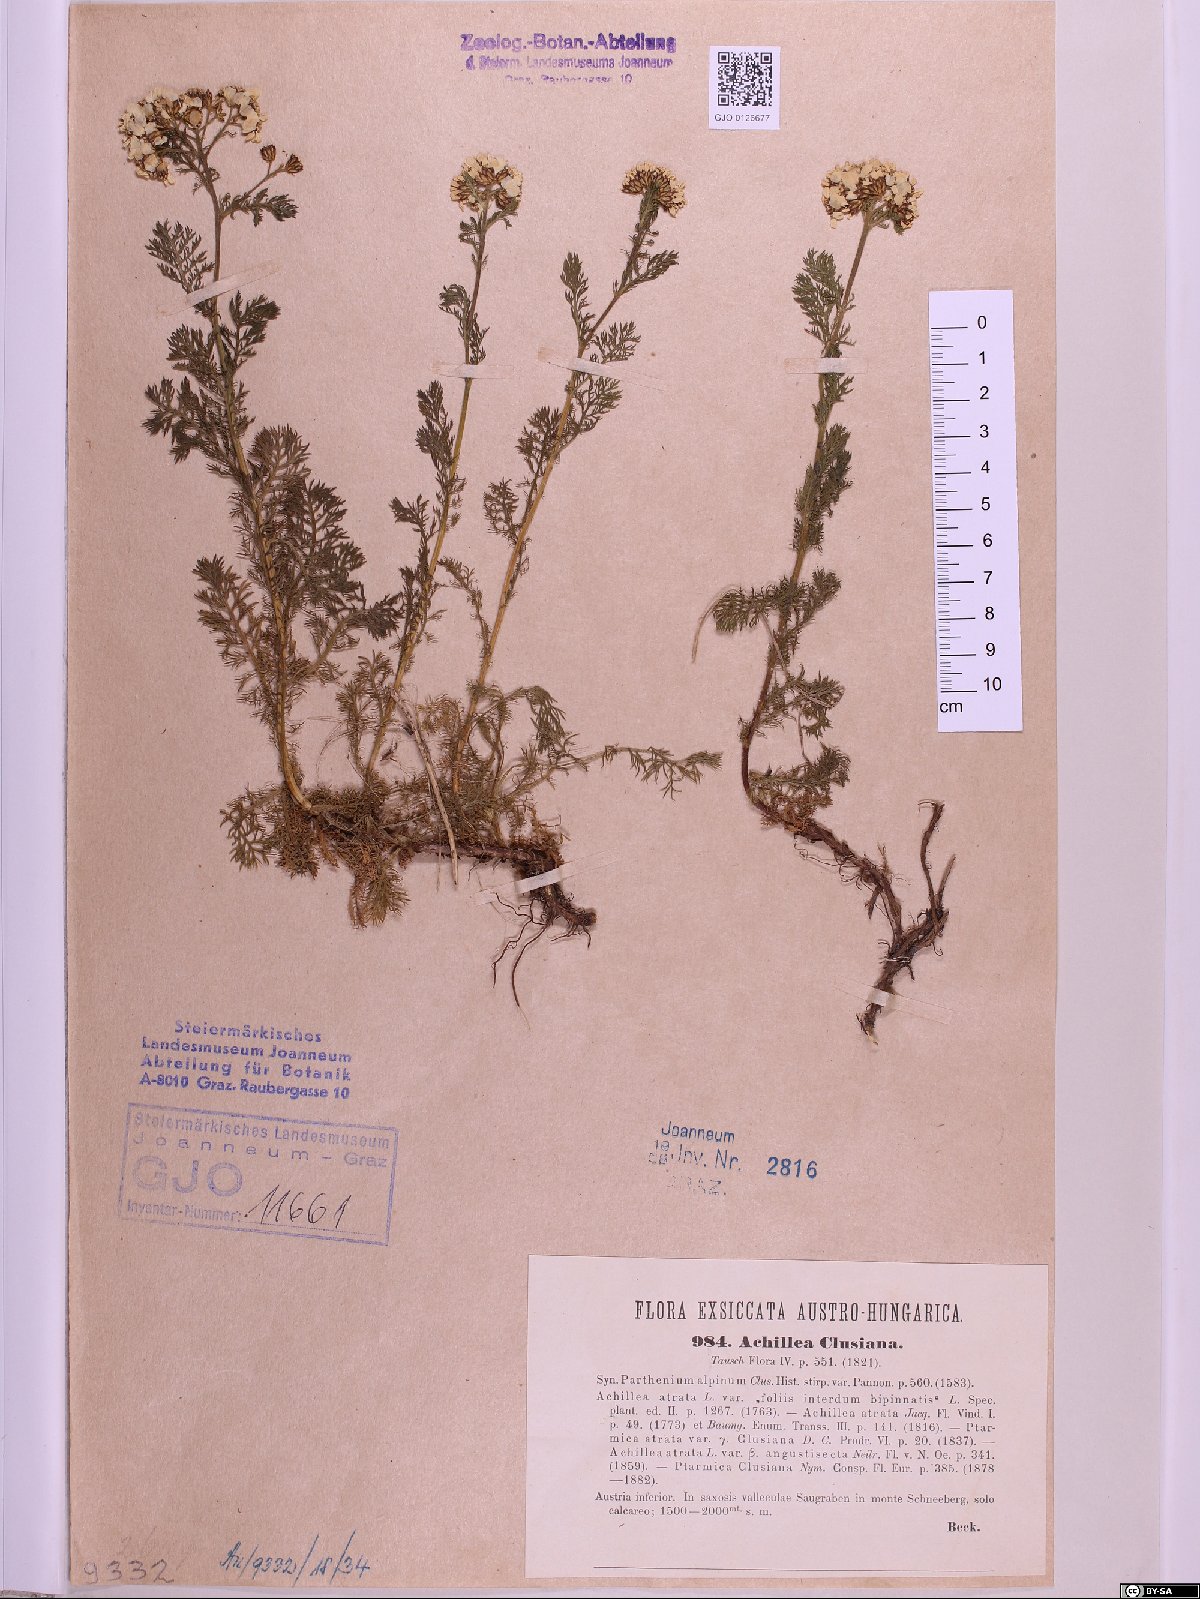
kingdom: Plantae
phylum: Tracheophyta
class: Magnoliopsida
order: Asterales
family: Asteraceae
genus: Achillea
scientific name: Achillea clusiana
